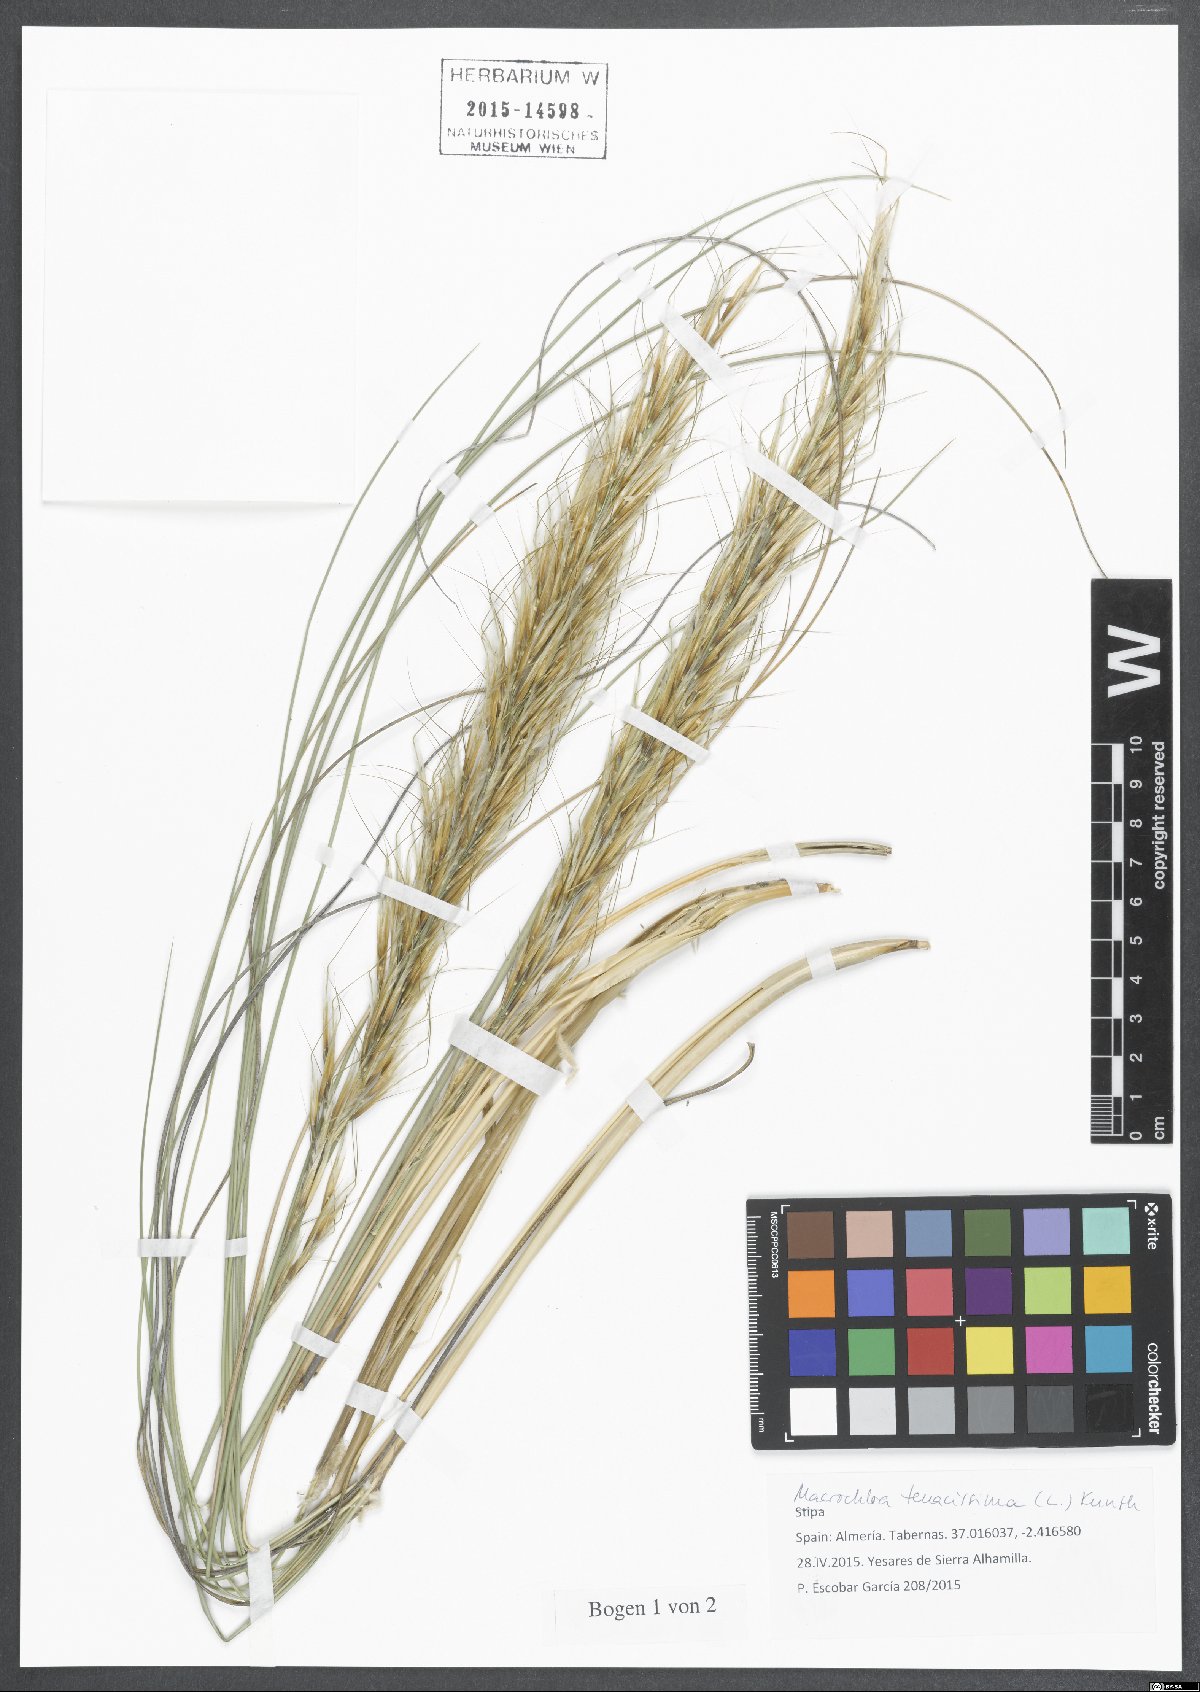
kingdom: Plantae
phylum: Tracheophyta
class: Liliopsida
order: Poales
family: Poaceae
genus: Macrochloa
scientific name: Macrochloa tenacissima
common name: Alfa grass
